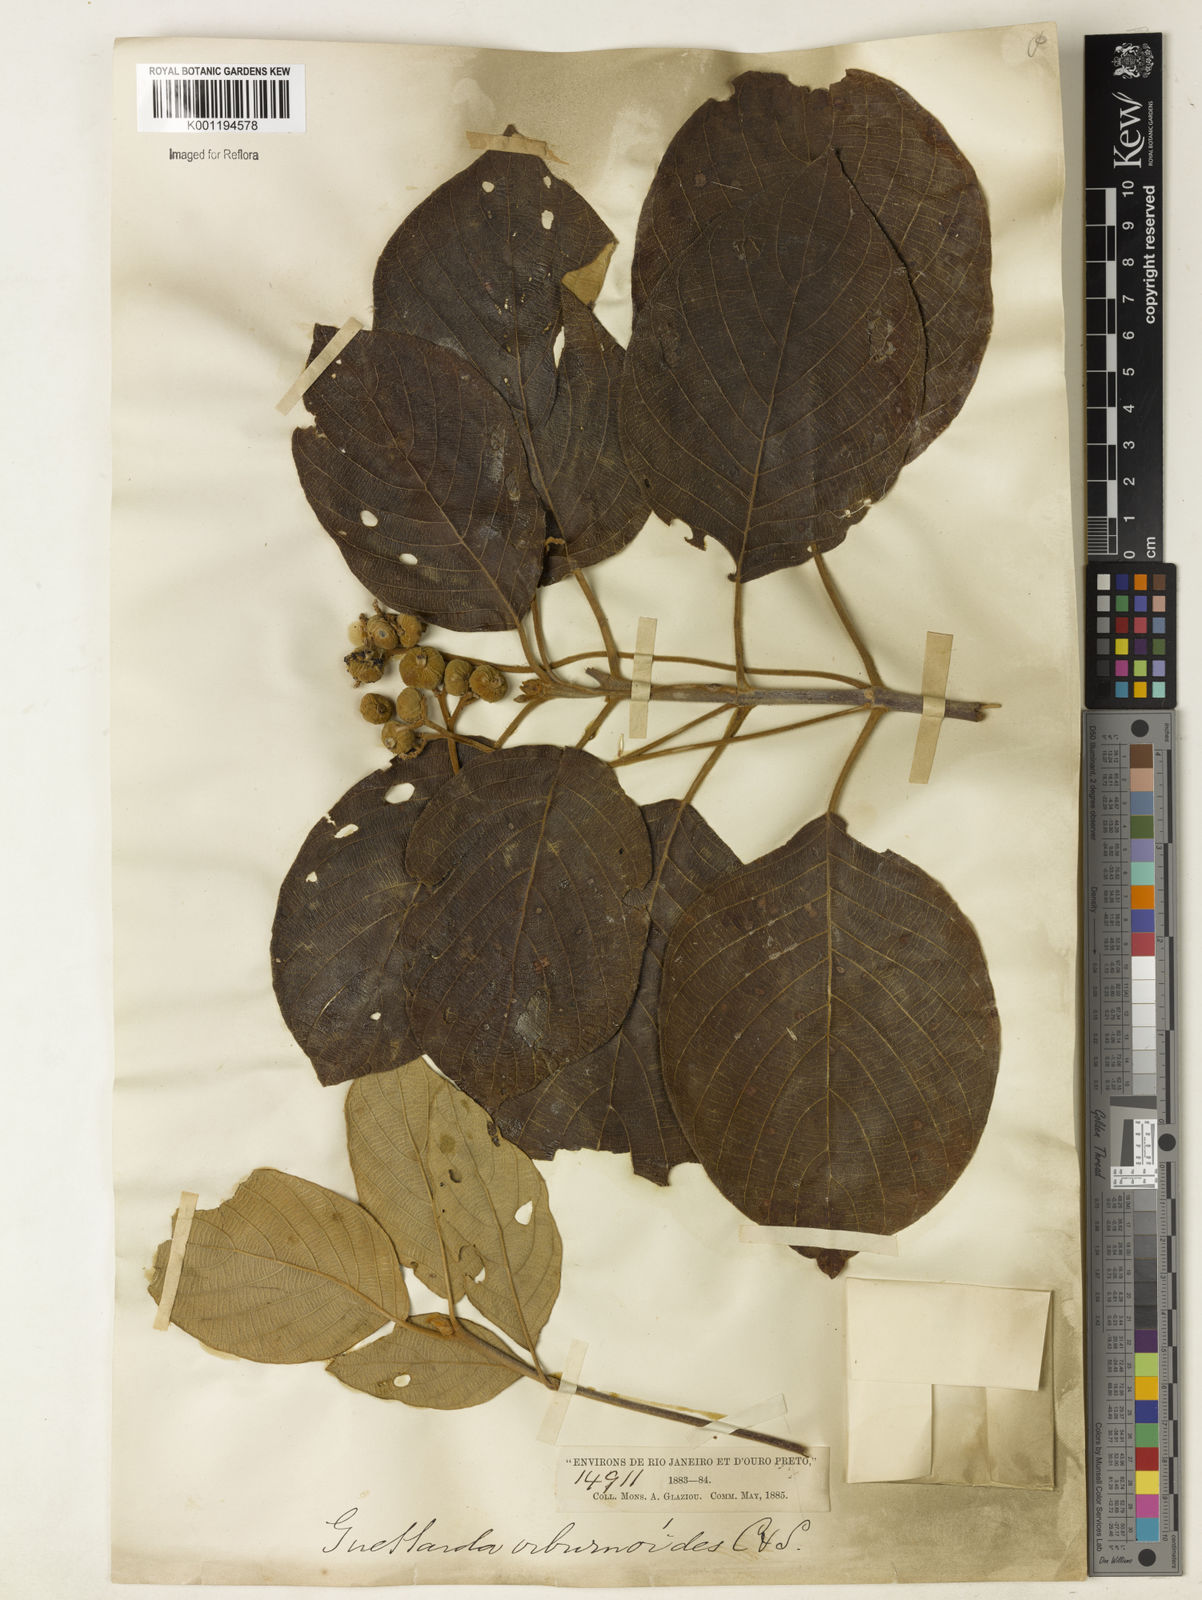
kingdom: Plantae
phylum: Tracheophyta
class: Magnoliopsida
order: Gentianales
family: Rubiaceae
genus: Guettarda
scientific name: Guettarda viburnoides
